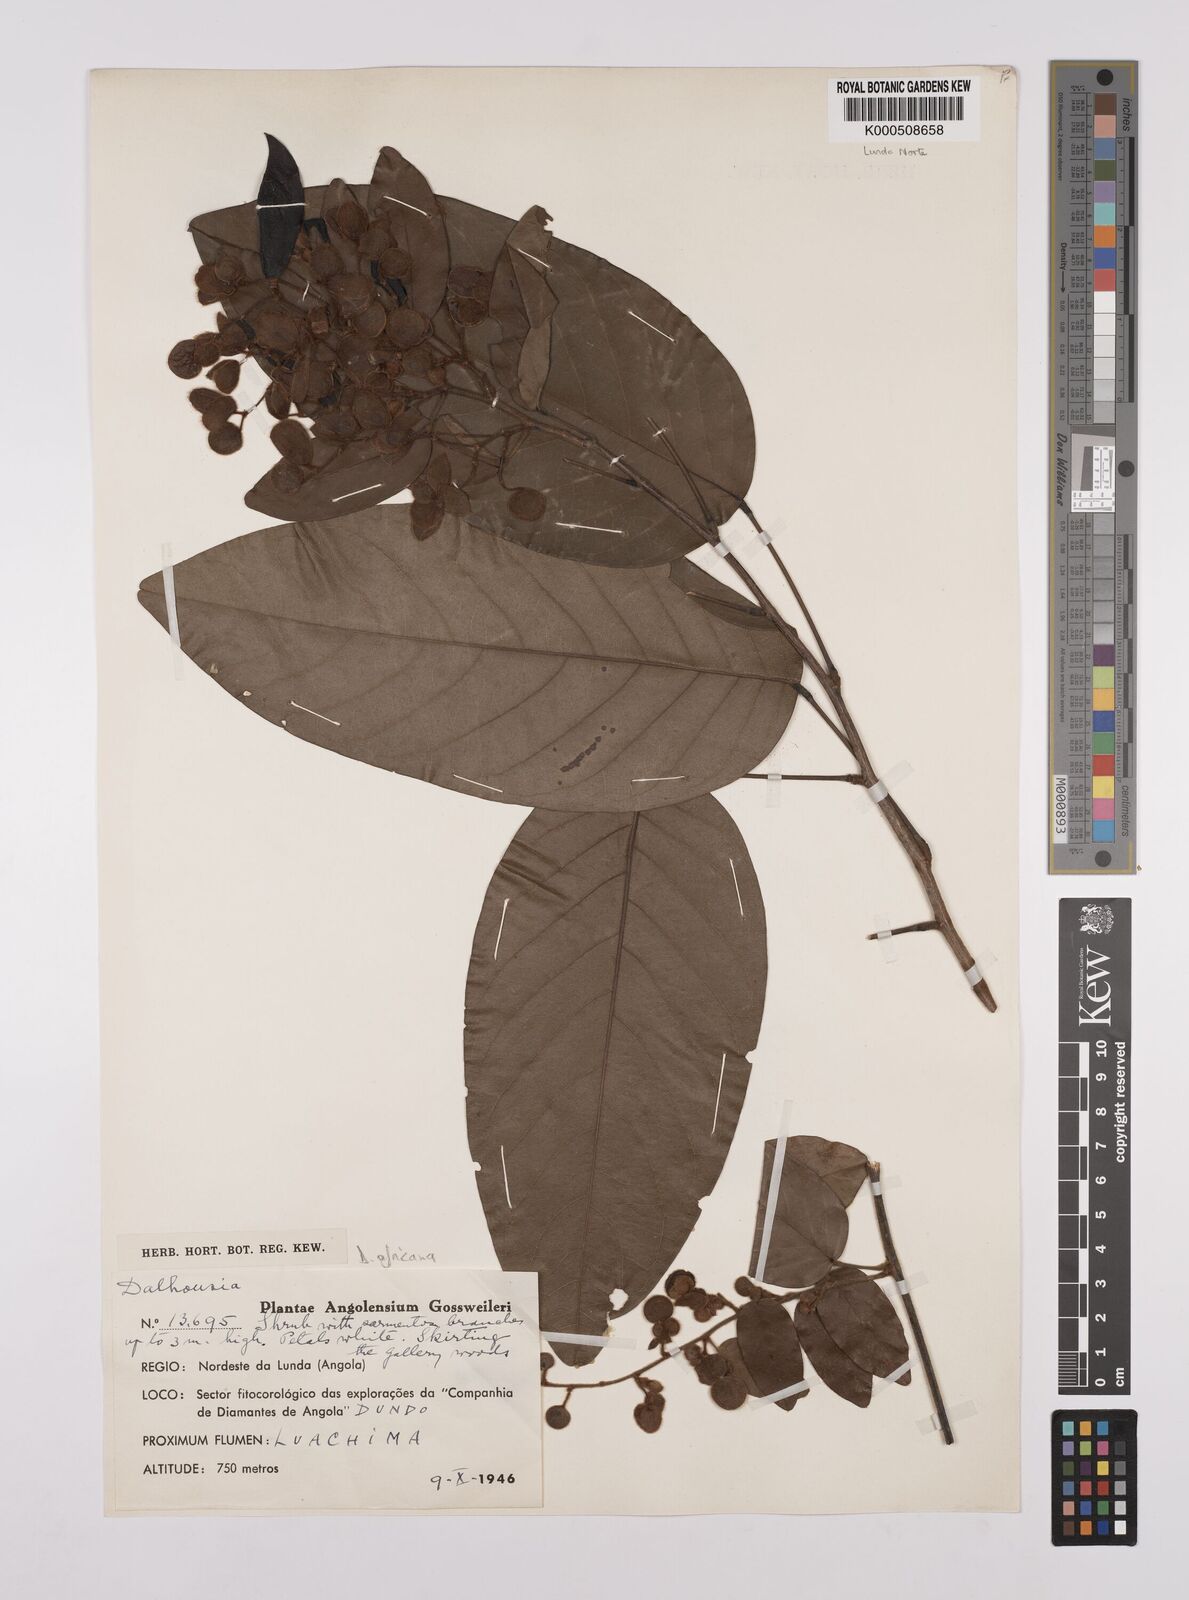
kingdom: Plantae
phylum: Tracheophyta
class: Magnoliopsida
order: Fabales
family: Fabaceae
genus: Dalhousiea
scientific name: Dalhousiea africana
